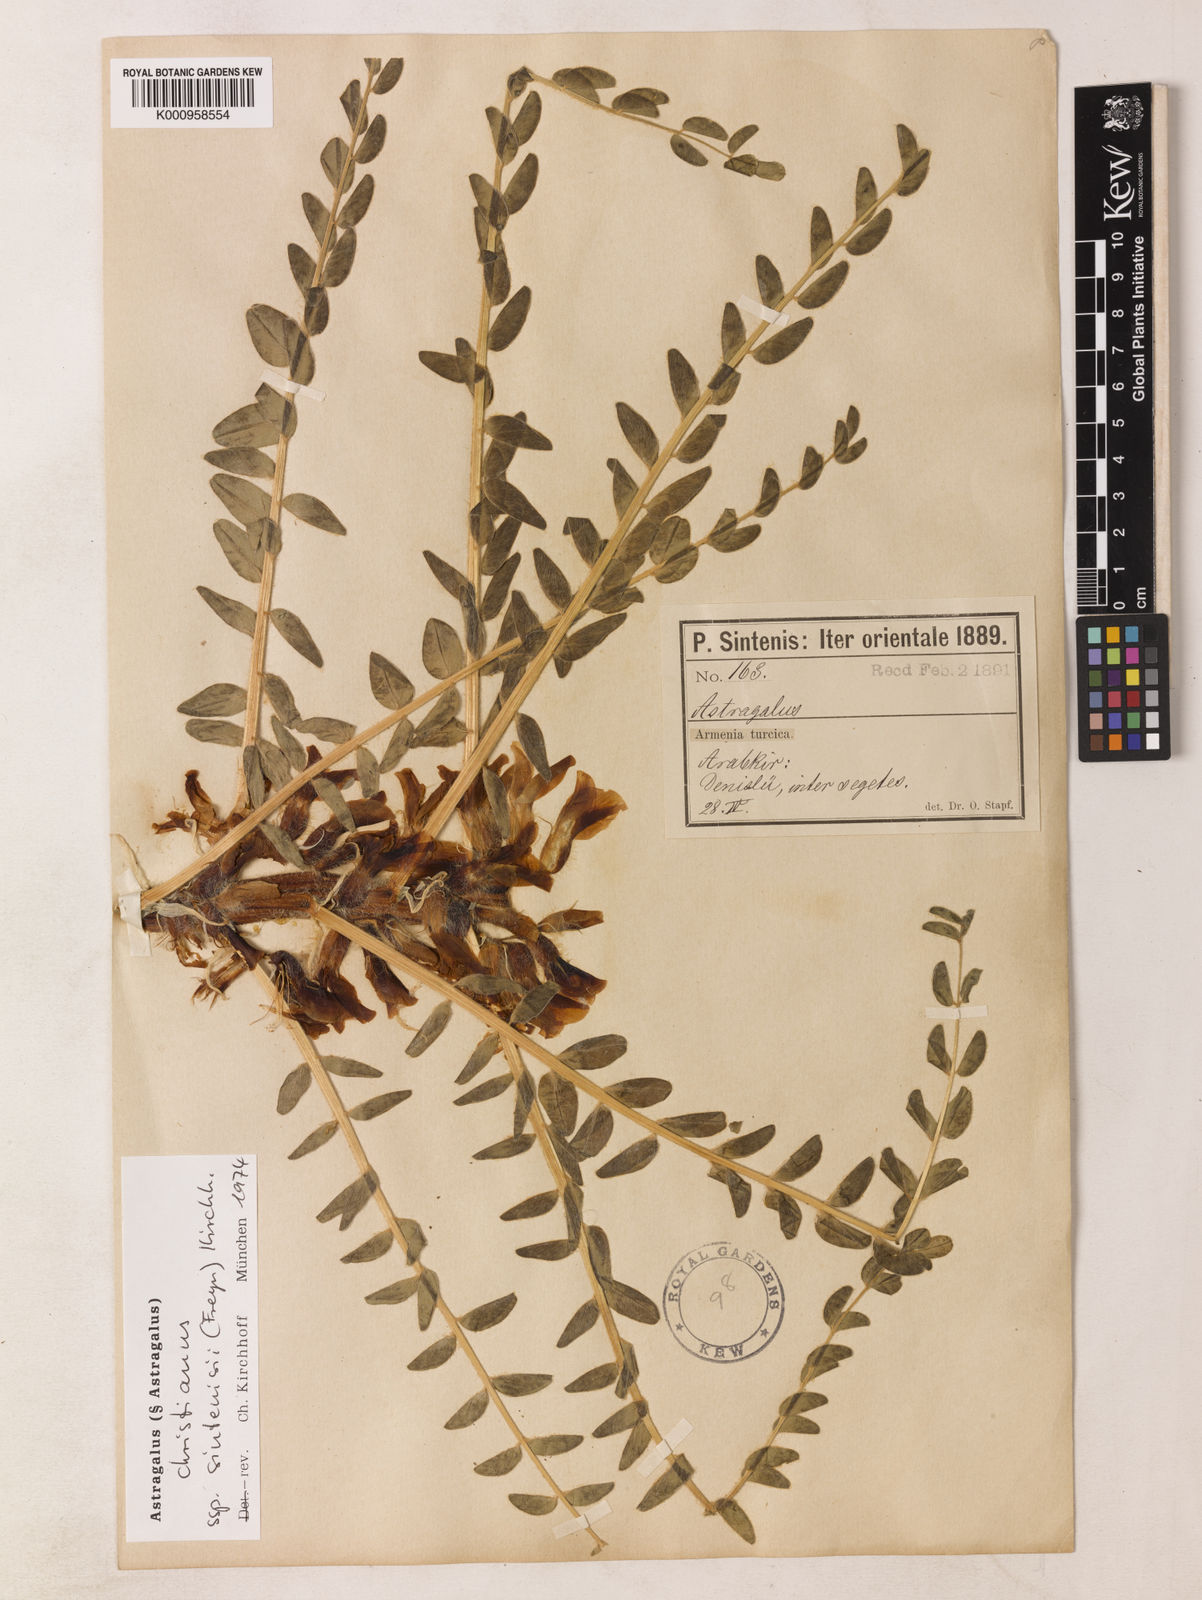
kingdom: Plantae
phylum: Tracheophyta
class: Magnoliopsida
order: Fabales
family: Fabaceae
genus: Astragalus
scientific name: Astragalus christianus
